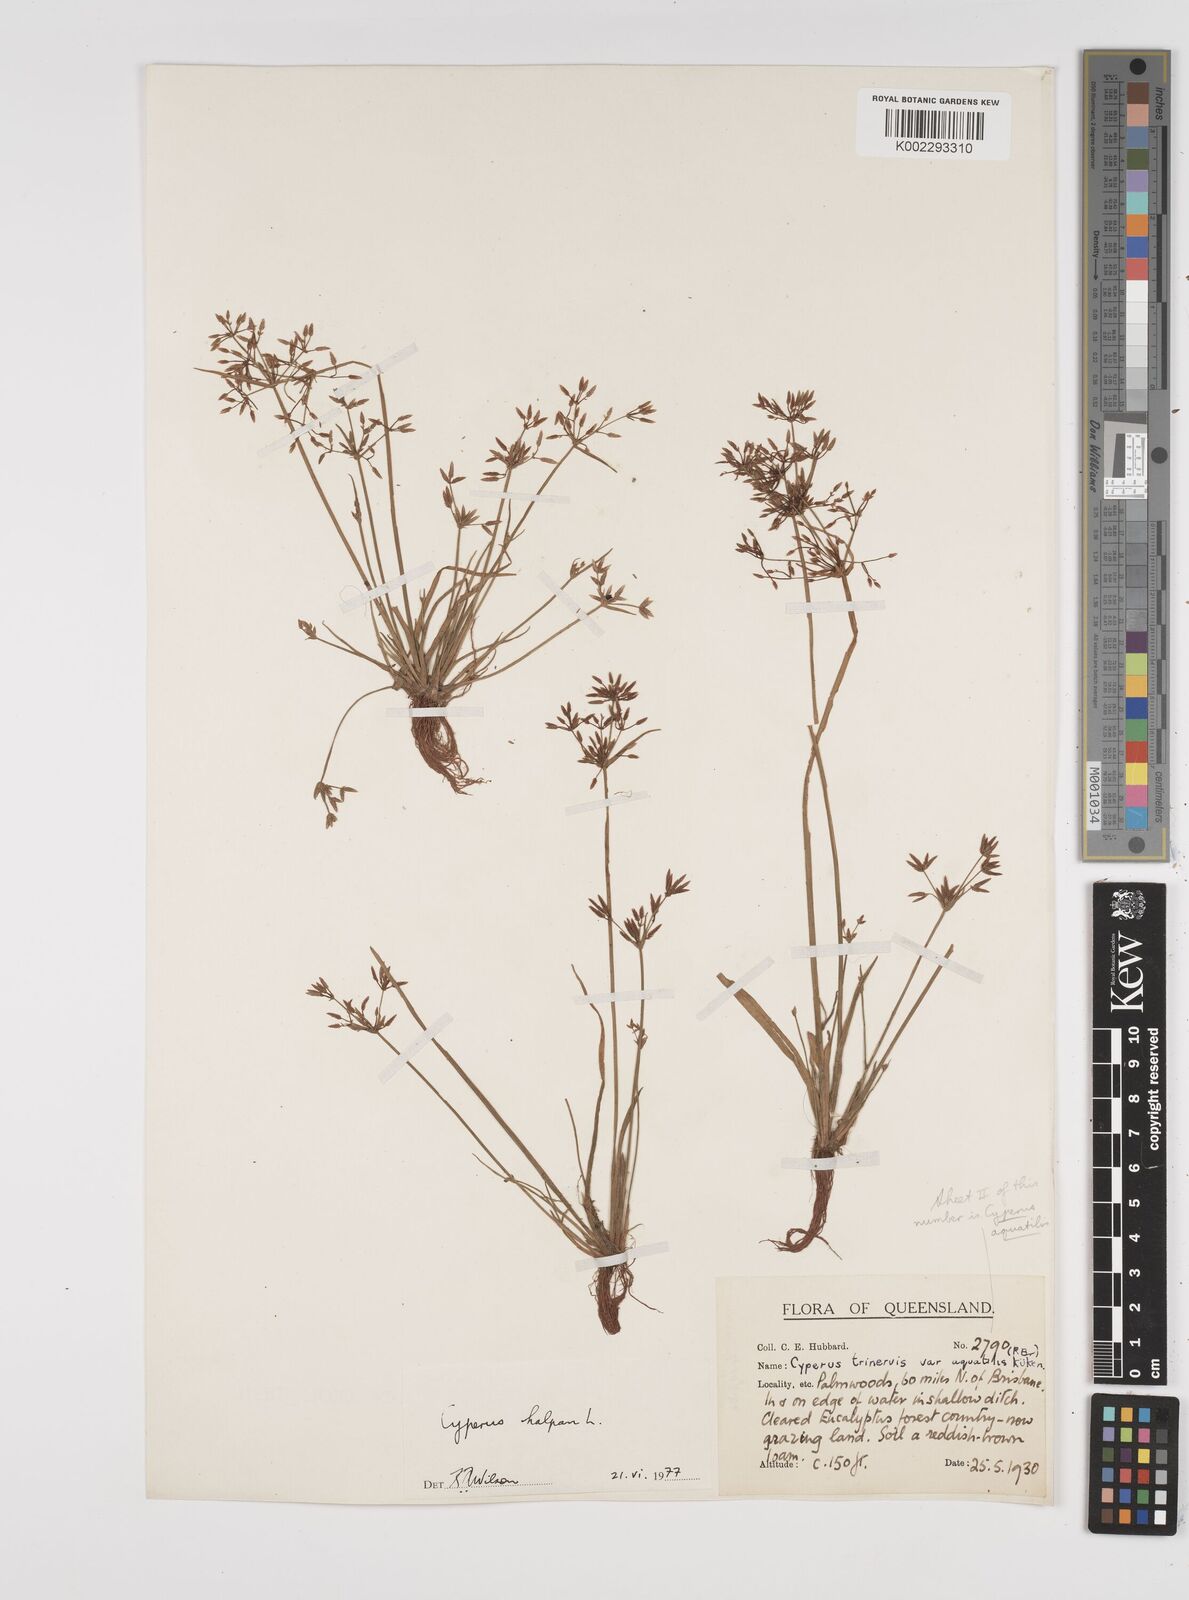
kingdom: Plantae
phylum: Tracheophyta
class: Liliopsida
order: Poales
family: Cyperaceae
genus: Cyperus
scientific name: Cyperus haspan
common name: Haspan flatsedge
